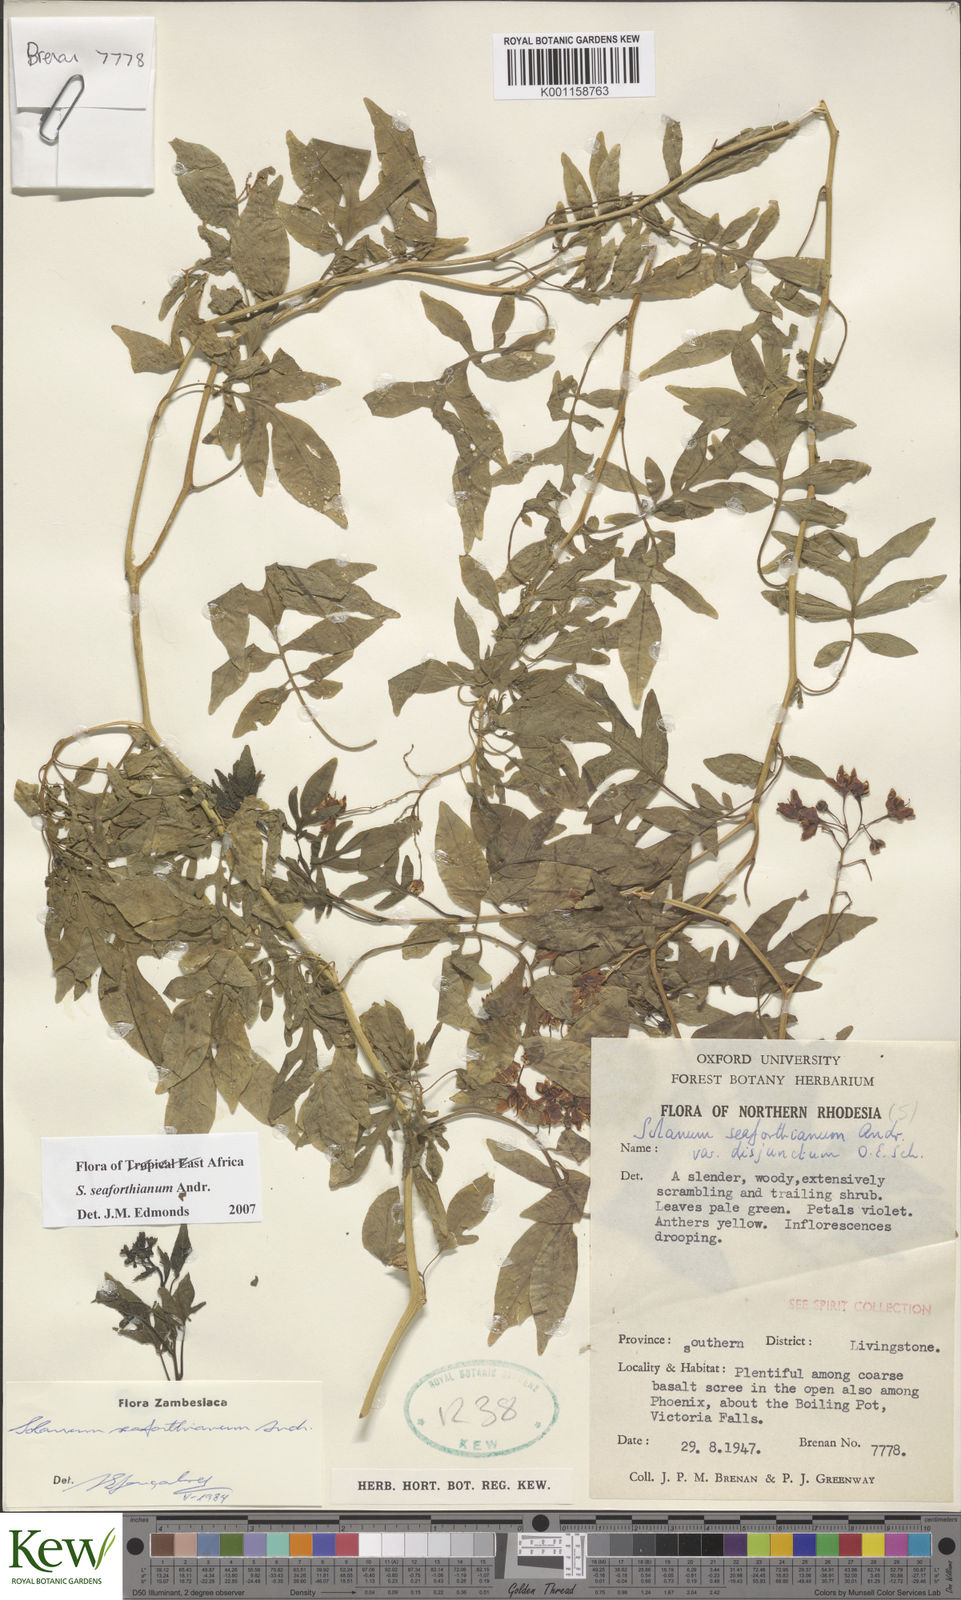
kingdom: Plantae
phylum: Tracheophyta
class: Magnoliopsida
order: Solanales
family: Solanaceae
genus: Solanum
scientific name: Solanum seaforthianum
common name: Brazilian nightshade
